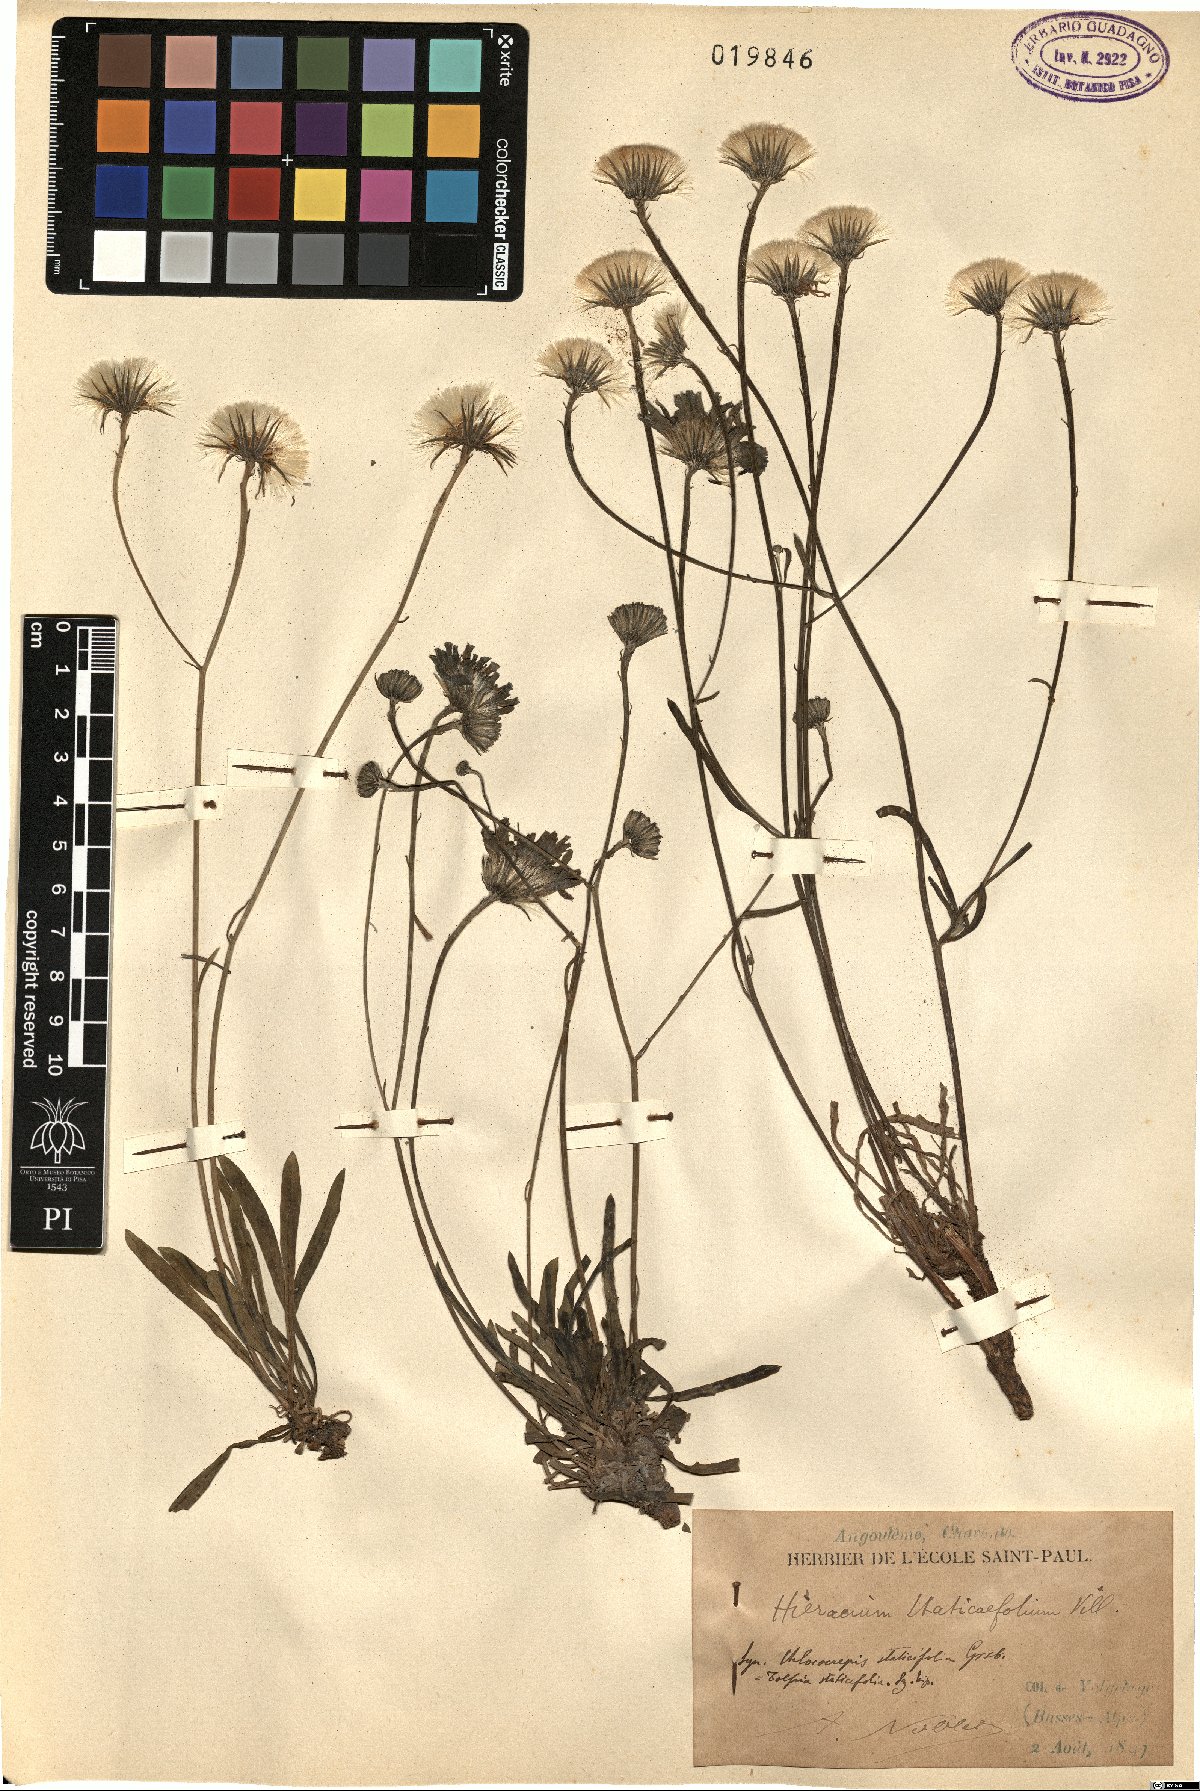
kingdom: Plantae
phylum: Tracheophyta
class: Magnoliopsida
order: Asterales
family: Asteraceae
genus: Tolpis
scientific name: Tolpis staticifolia
